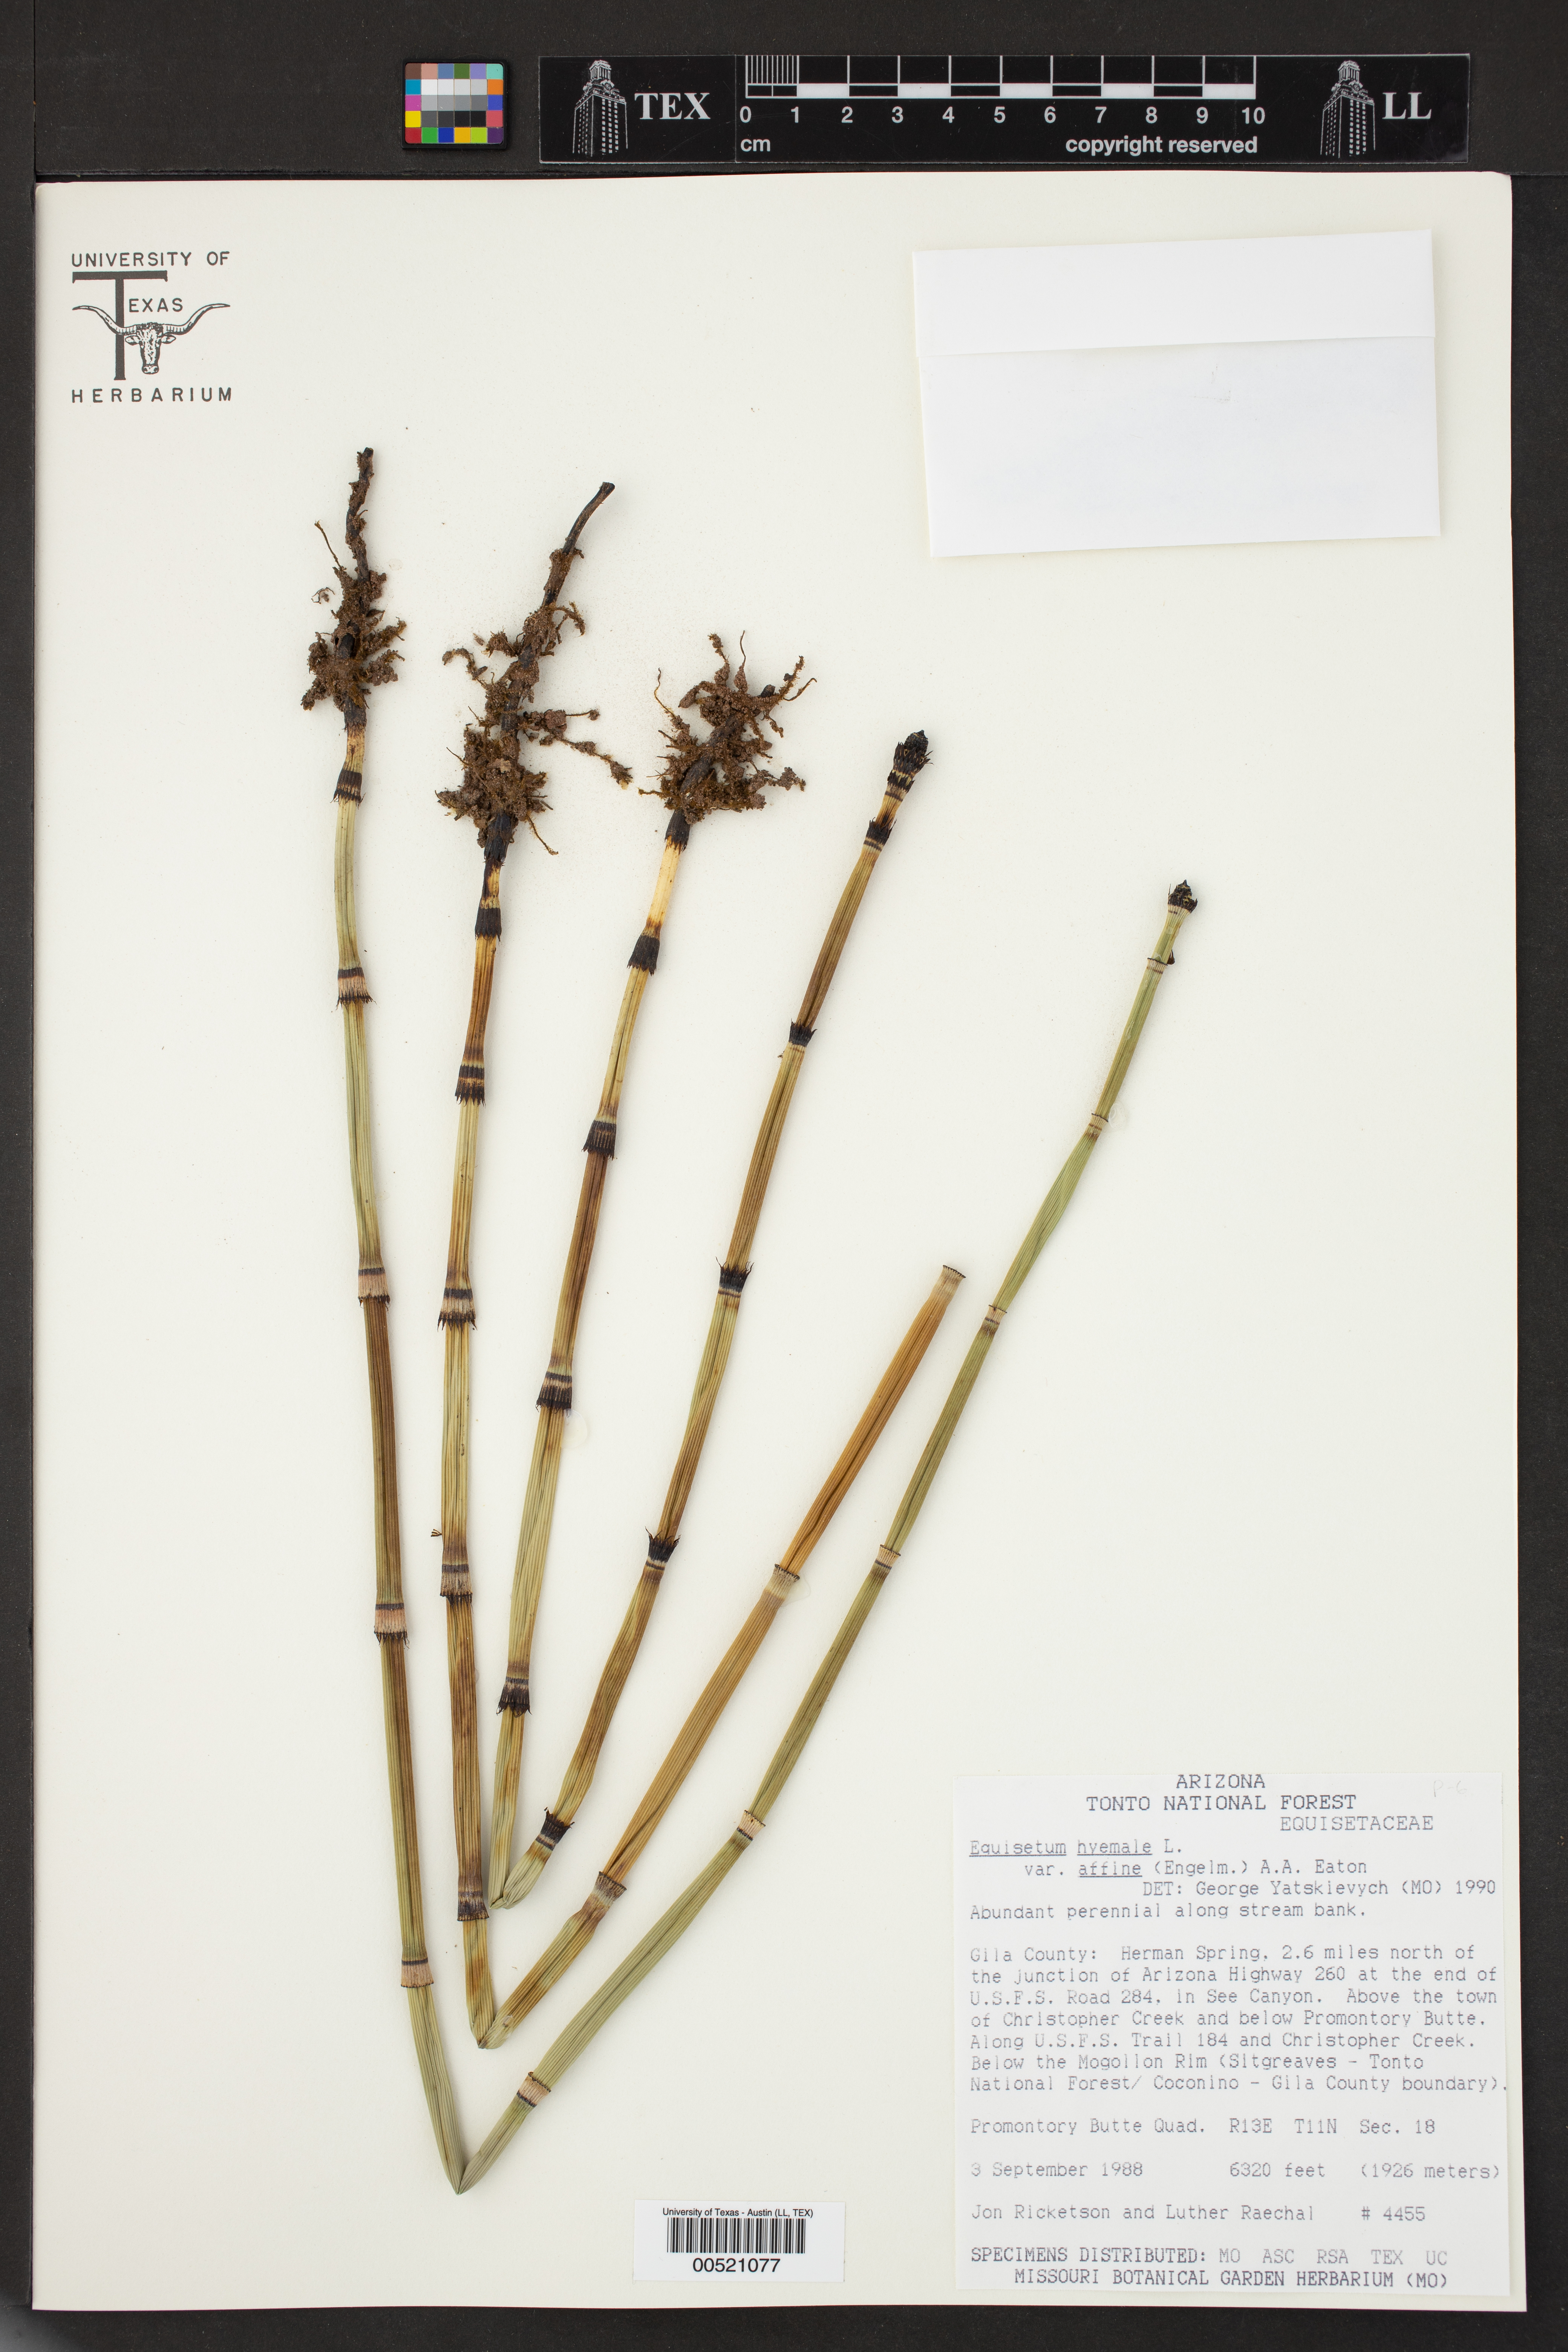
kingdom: Plantae
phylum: Tracheophyta
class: Polypodiopsida
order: Equisetales
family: Equisetaceae
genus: Equisetum
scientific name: Equisetum praealtum
